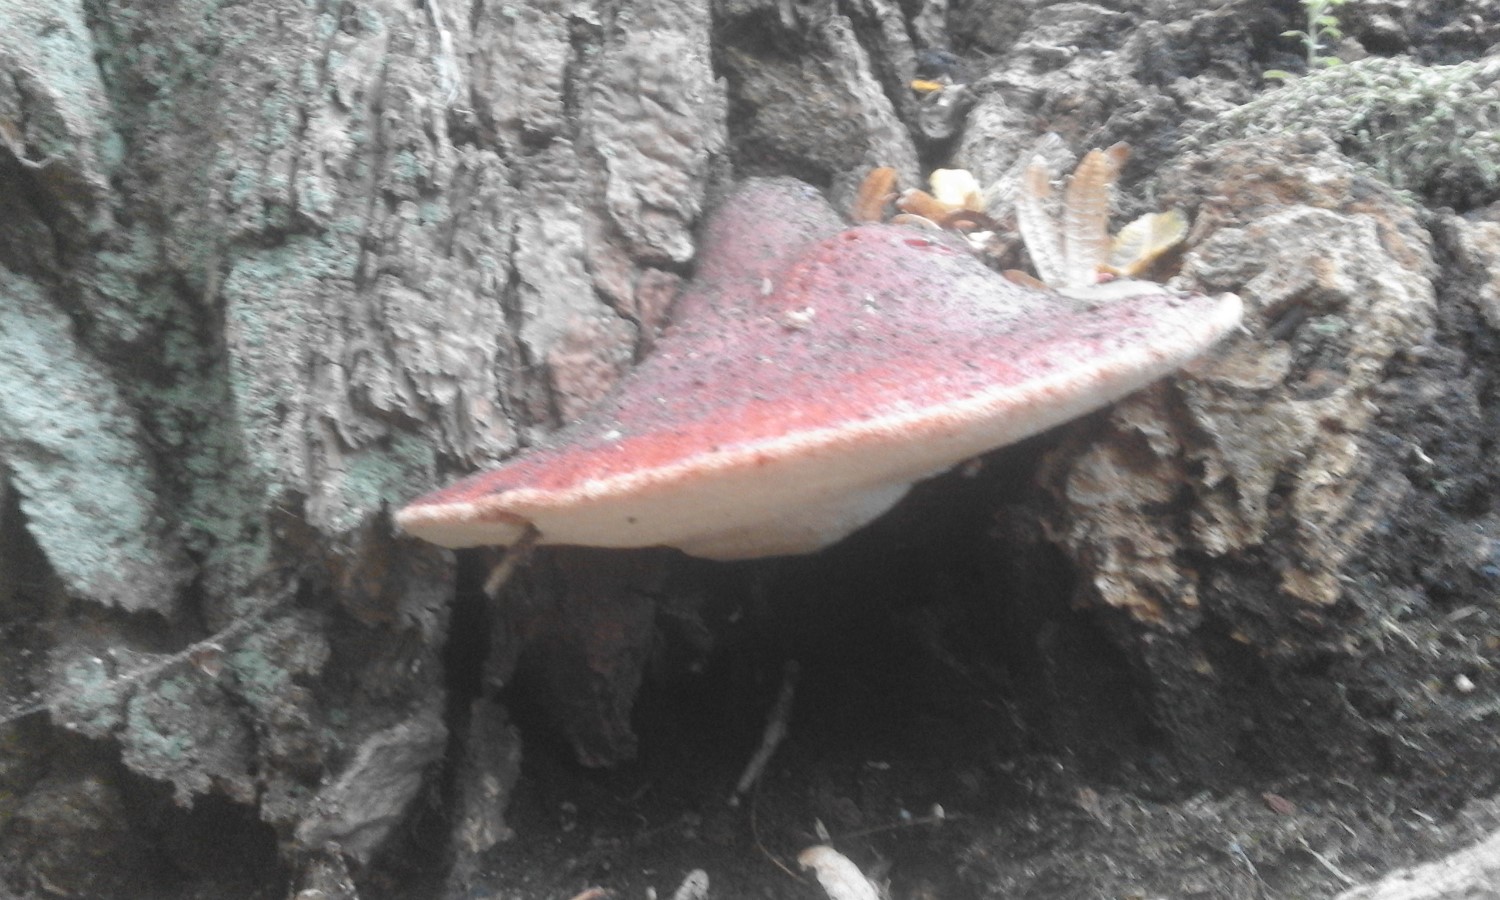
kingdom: Fungi
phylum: Basidiomycota
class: Agaricomycetes
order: Agaricales
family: Fistulinaceae
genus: Fistulina
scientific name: Fistulina hepatica
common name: oksetunge
